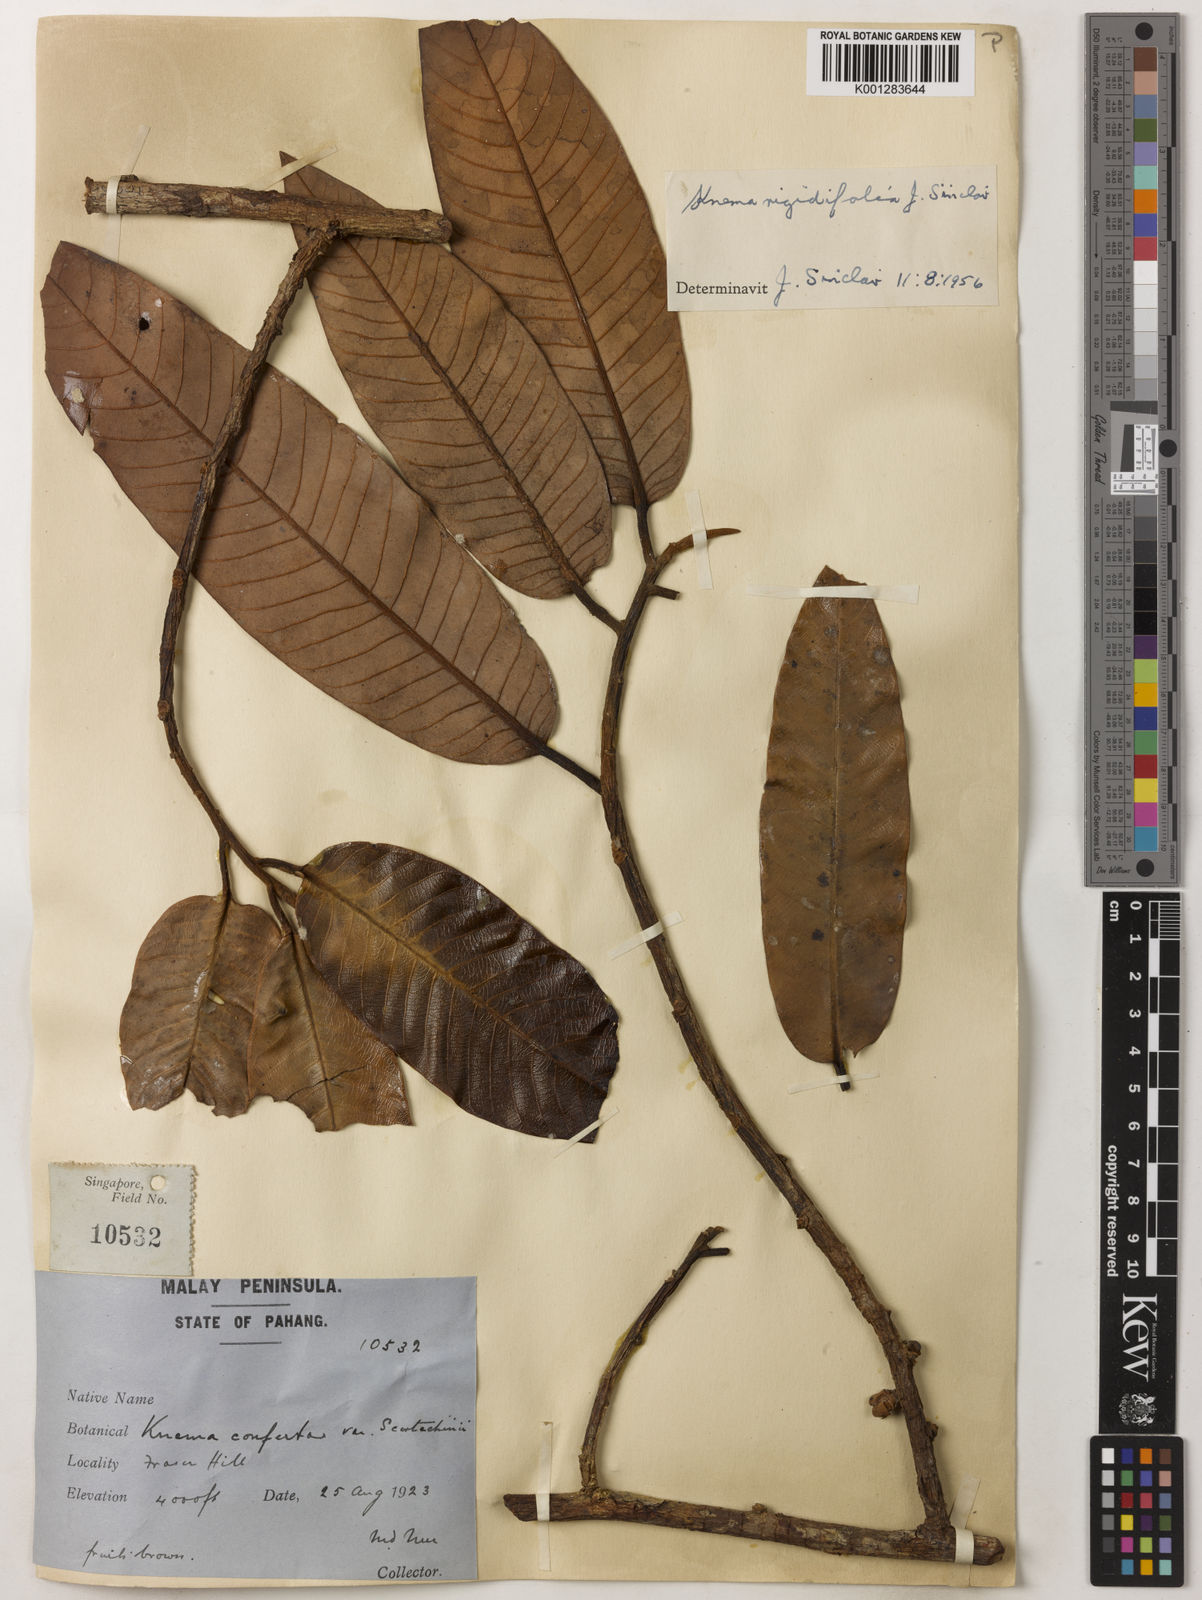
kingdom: Plantae
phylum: Tracheophyta
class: Magnoliopsida
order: Magnoliales
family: Myristicaceae
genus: Knema
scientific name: Knema rigidifolia
